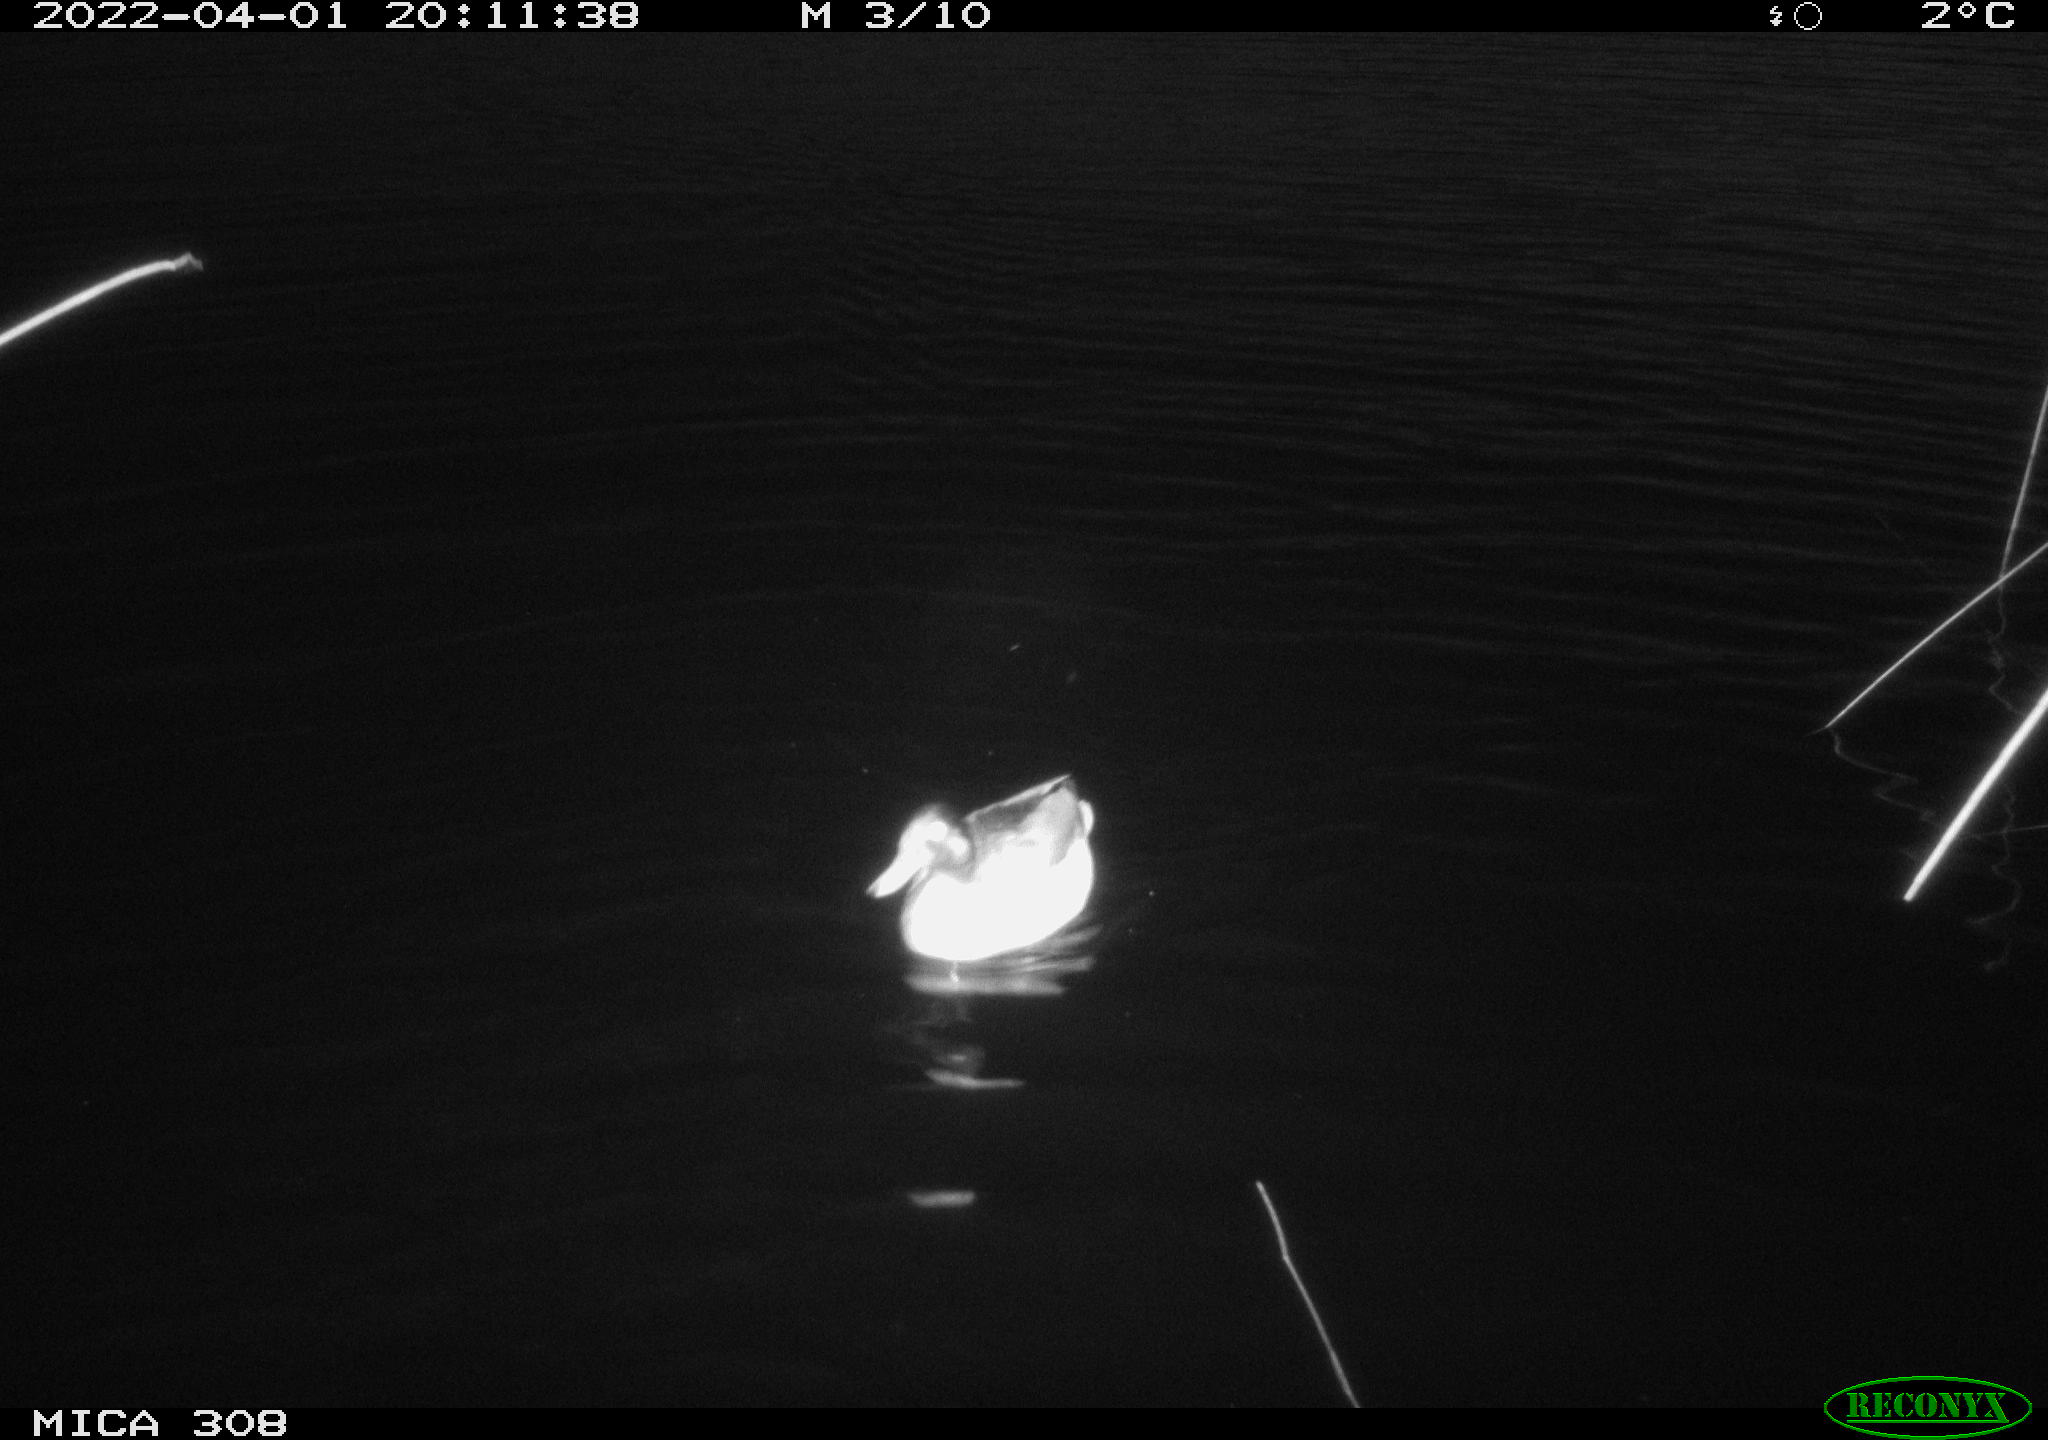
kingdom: Animalia
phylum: Chordata
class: Aves
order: Anseriformes
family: Anatidae
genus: Anas
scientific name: Anas platyrhynchos
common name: Mallard
